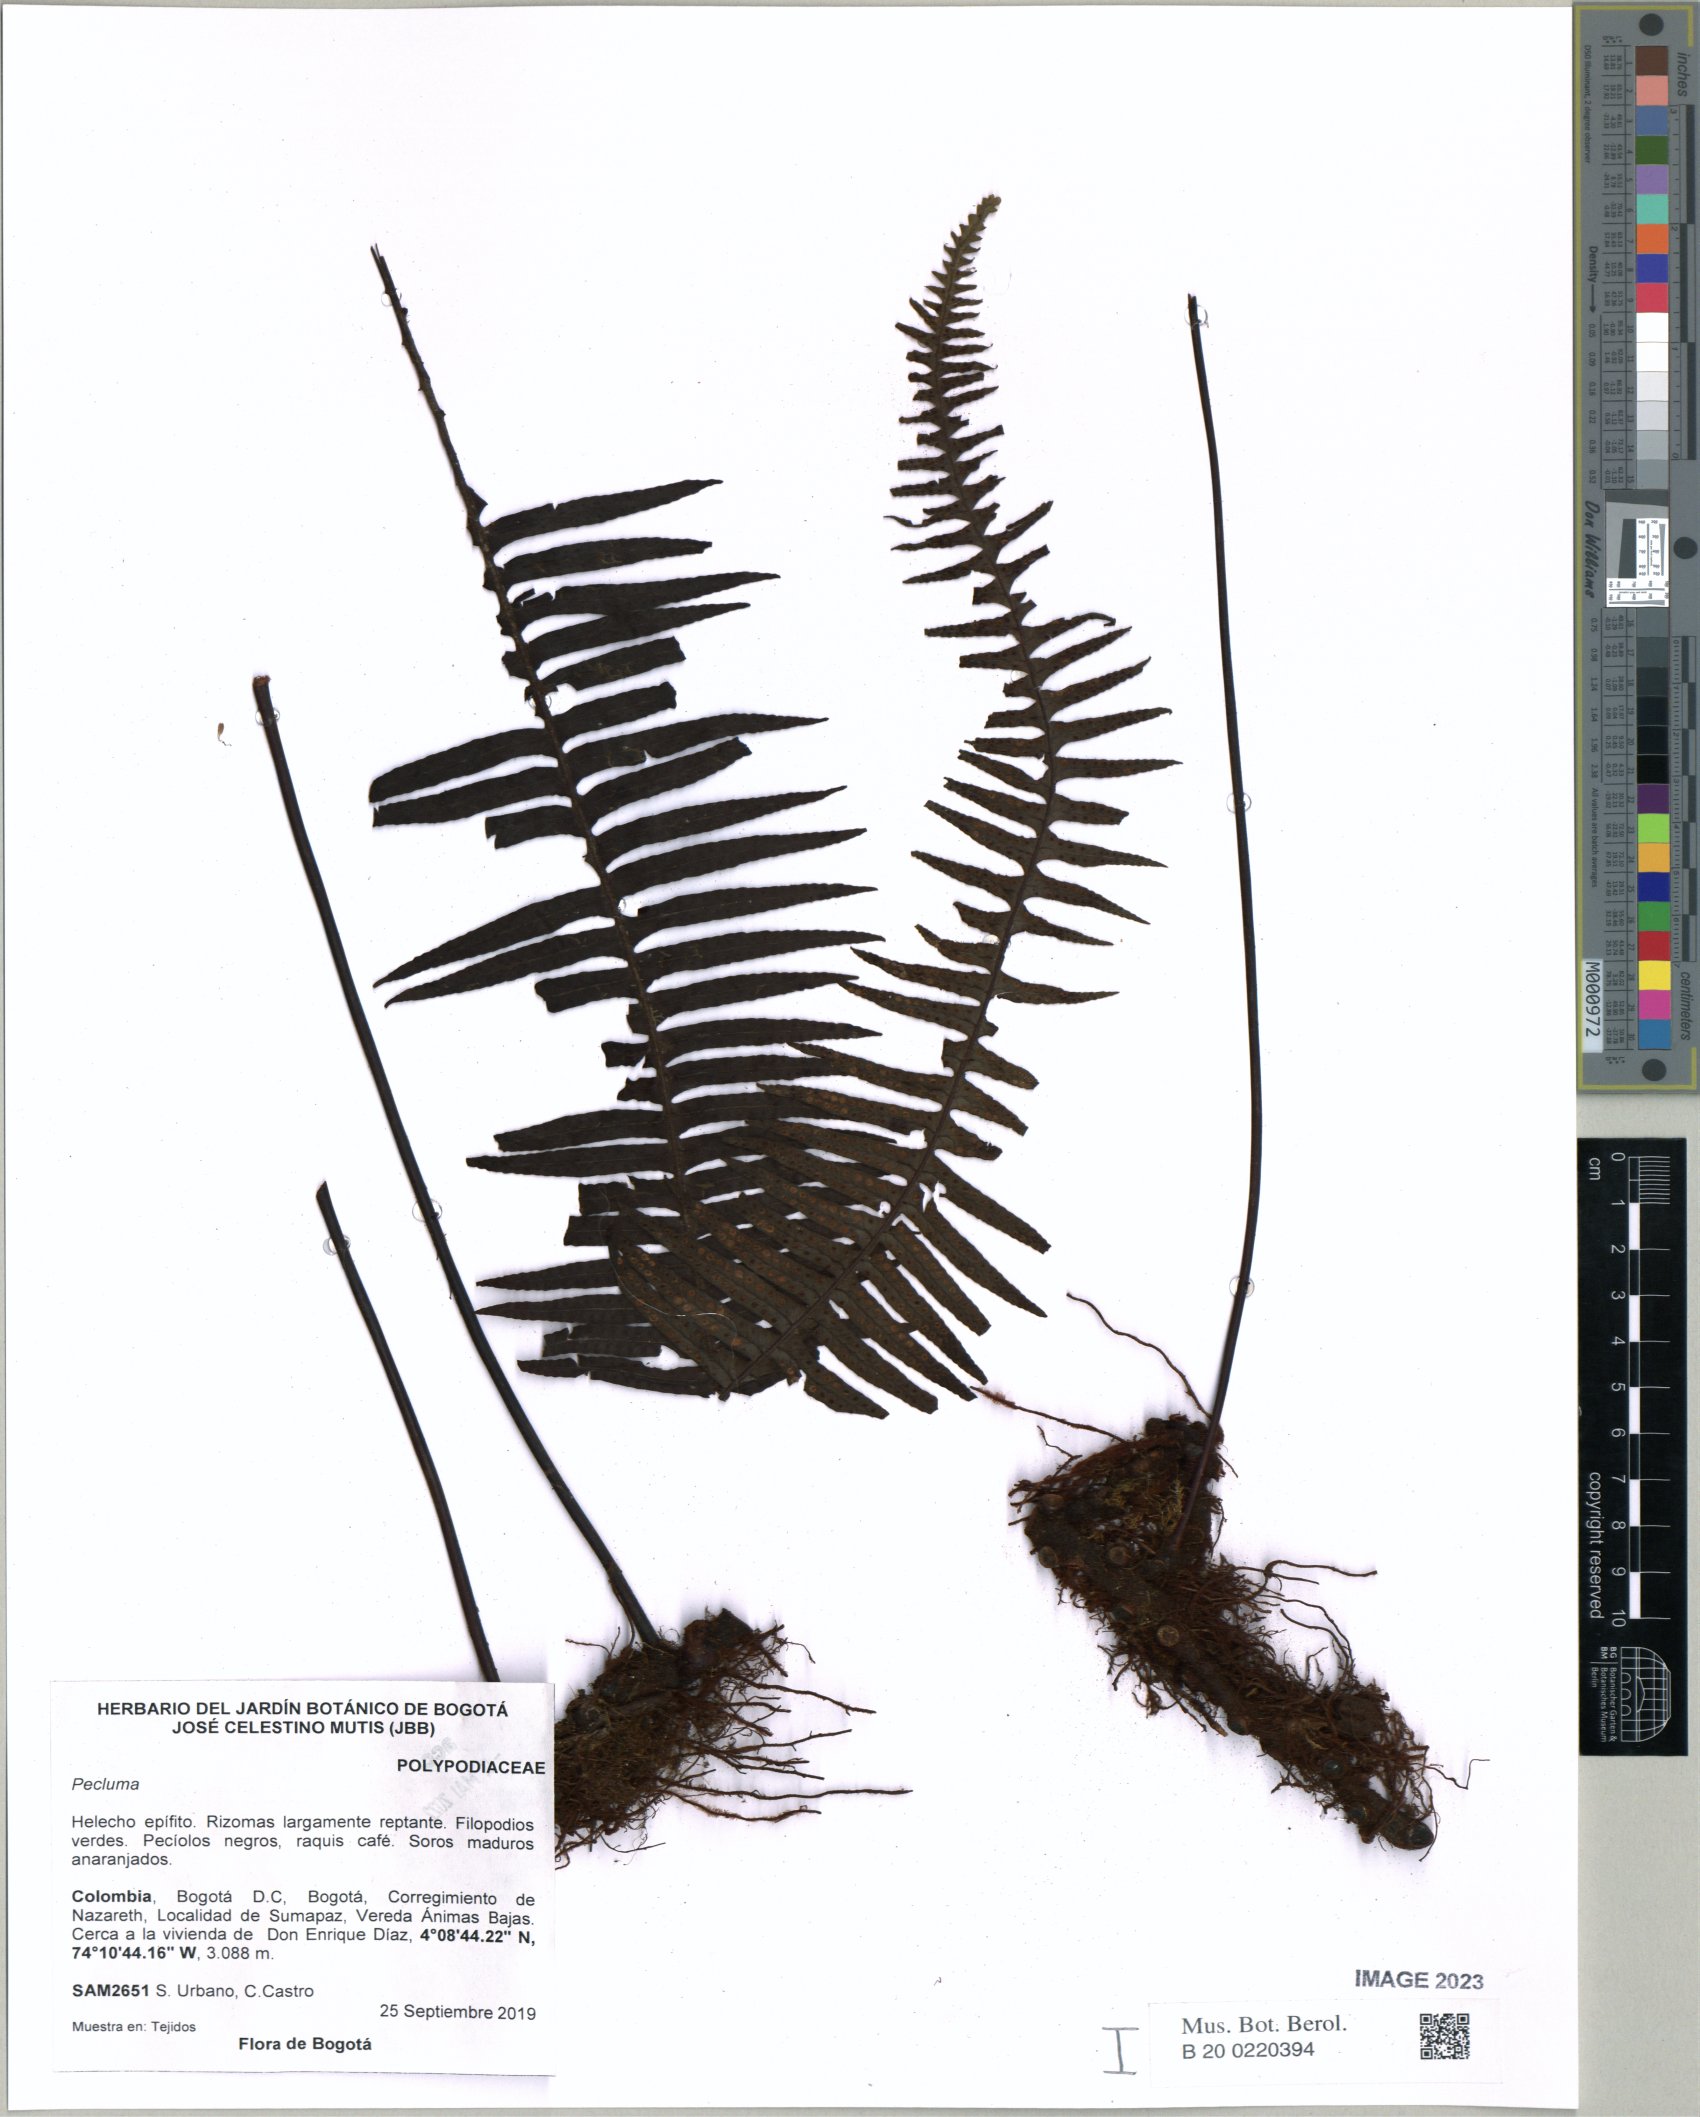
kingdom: Plantae
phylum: Tracheophyta
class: Polypodiopsida
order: Polypodiales
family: Polypodiaceae
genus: Pecluma
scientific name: Pecluma
